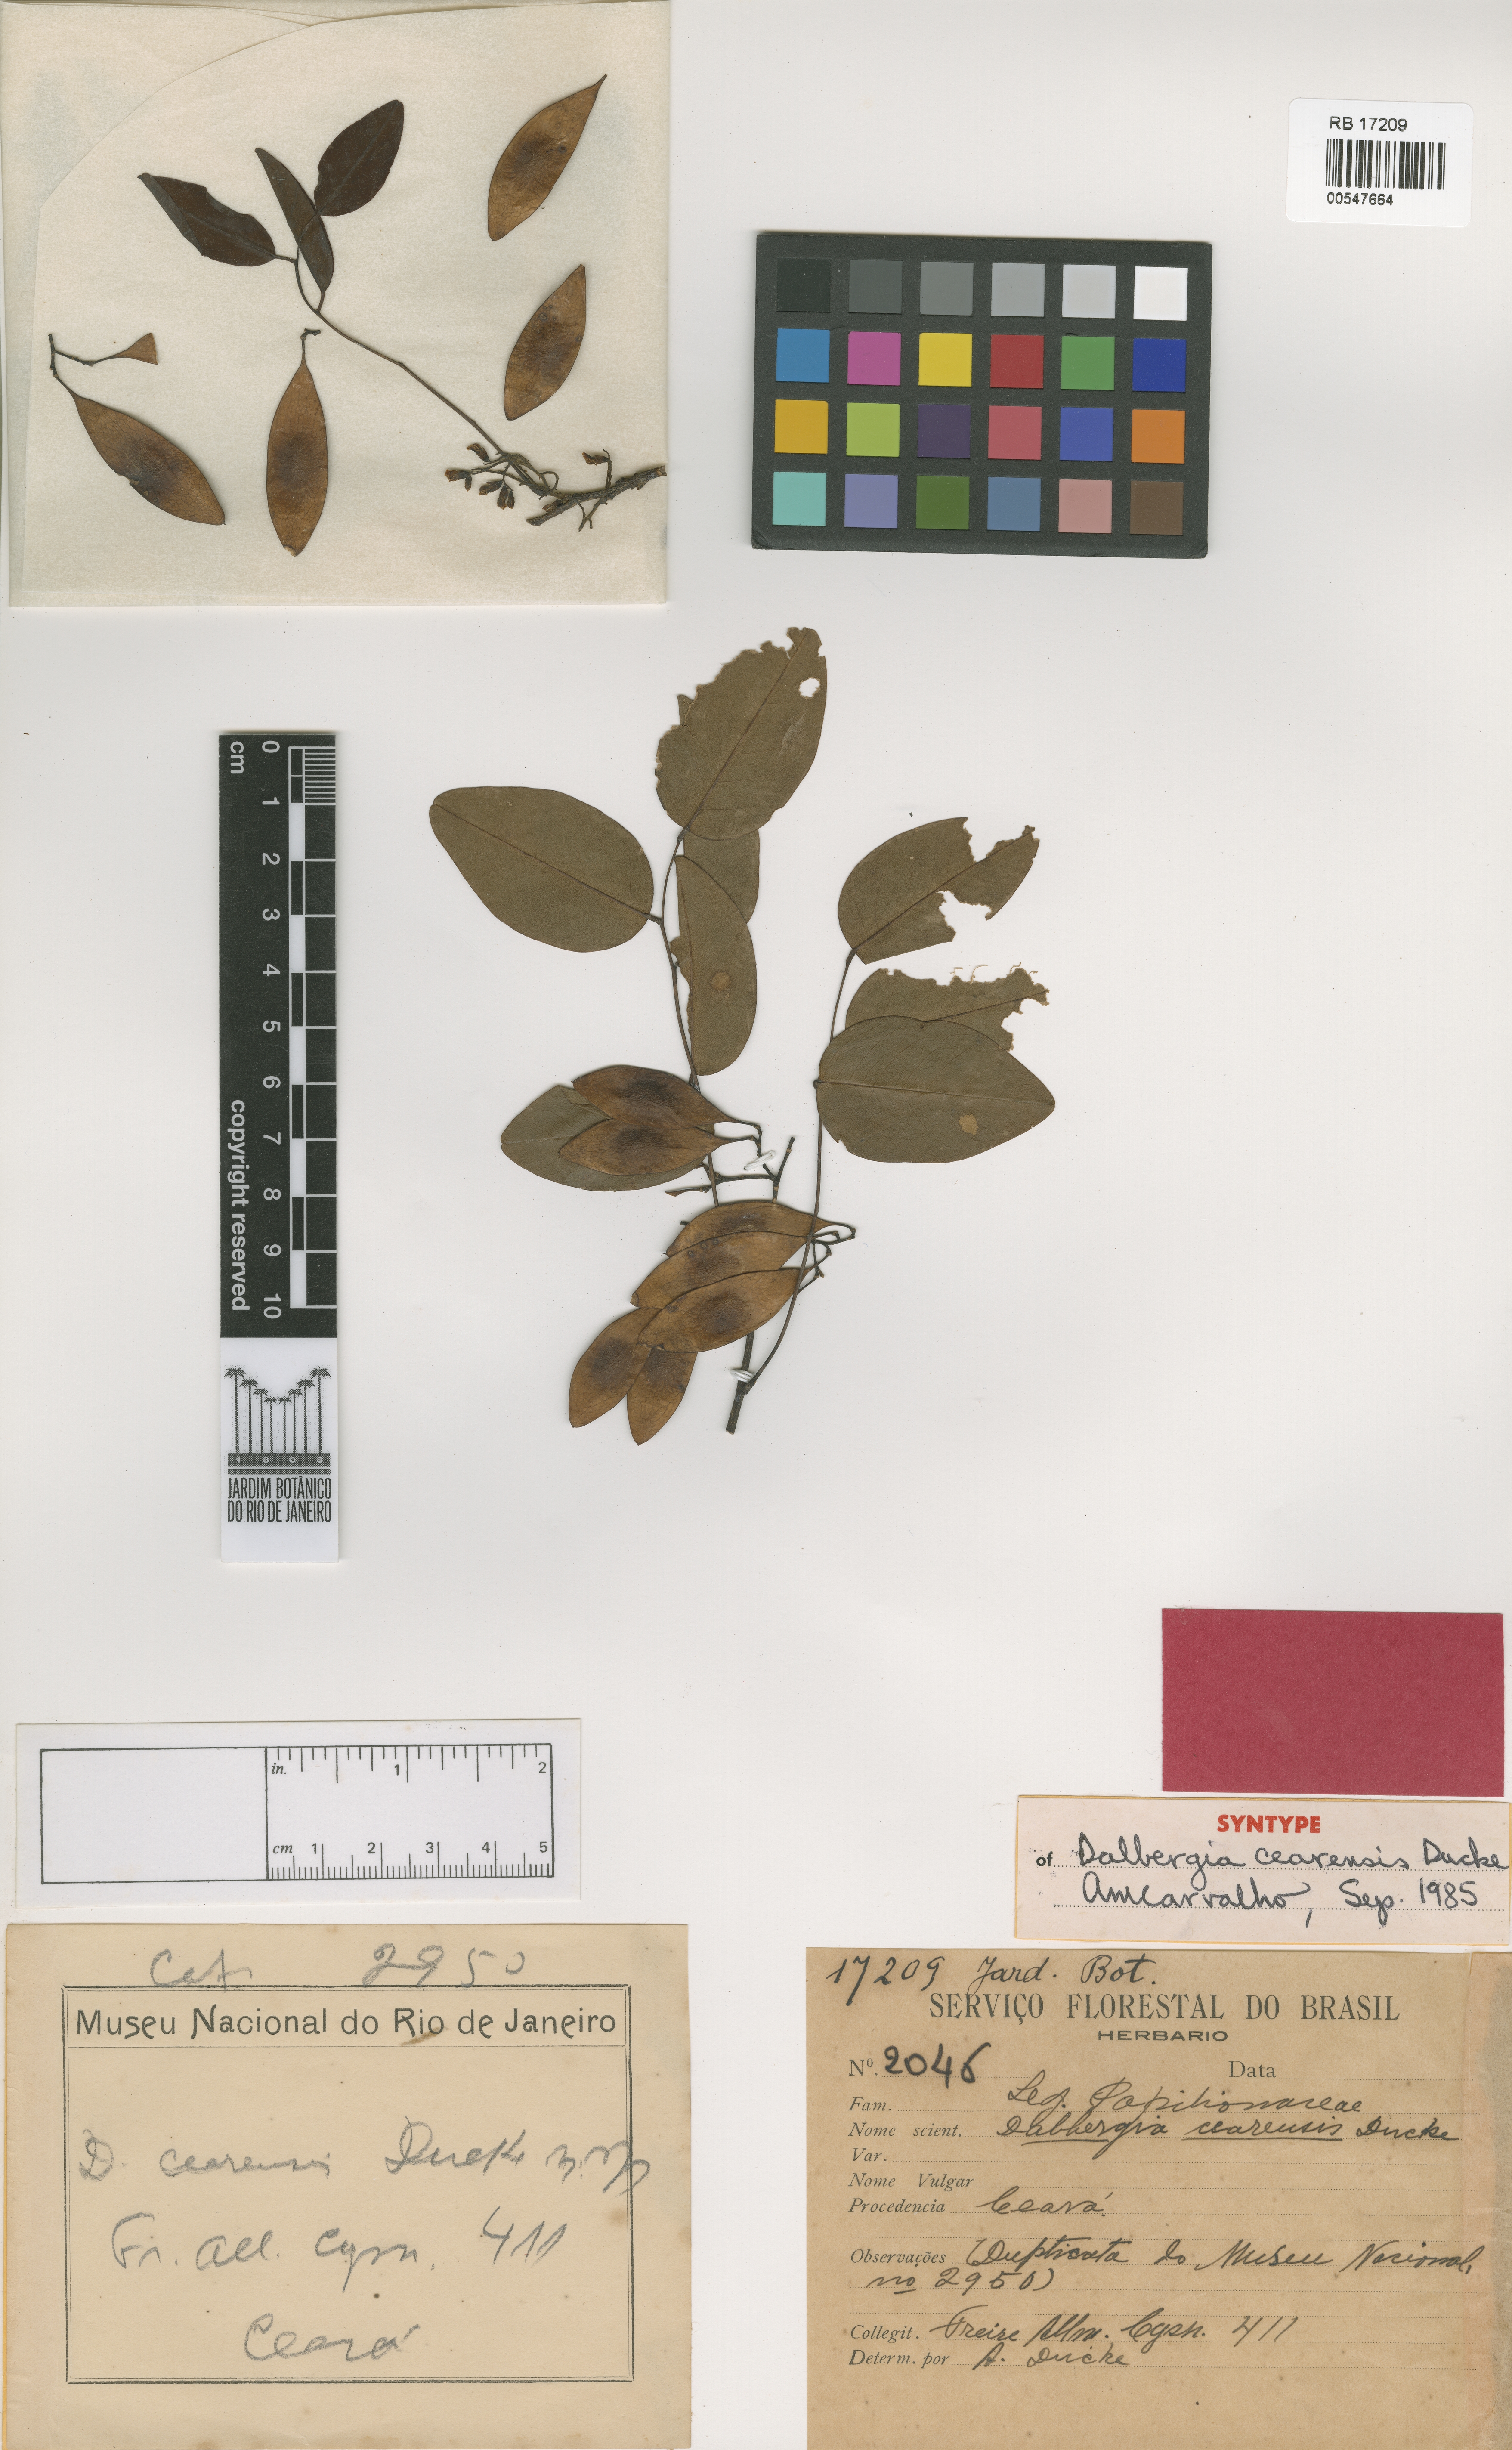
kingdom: Plantae
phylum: Tracheophyta
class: Magnoliopsida
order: Fabales
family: Fabaceae
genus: Dalbergia
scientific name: Dalbergia cearensis
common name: Brazilian-king-wood
